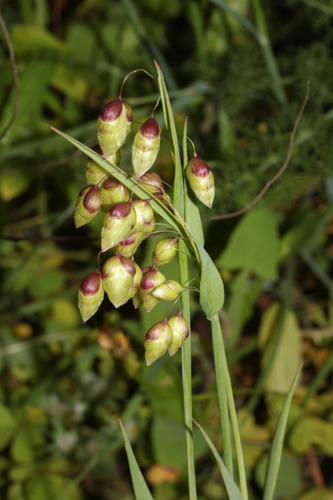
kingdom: Plantae
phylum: Tracheophyta
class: Liliopsida
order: Poales
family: Poaceae
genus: Briza
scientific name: Briza maxima
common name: Big quakinggrass
